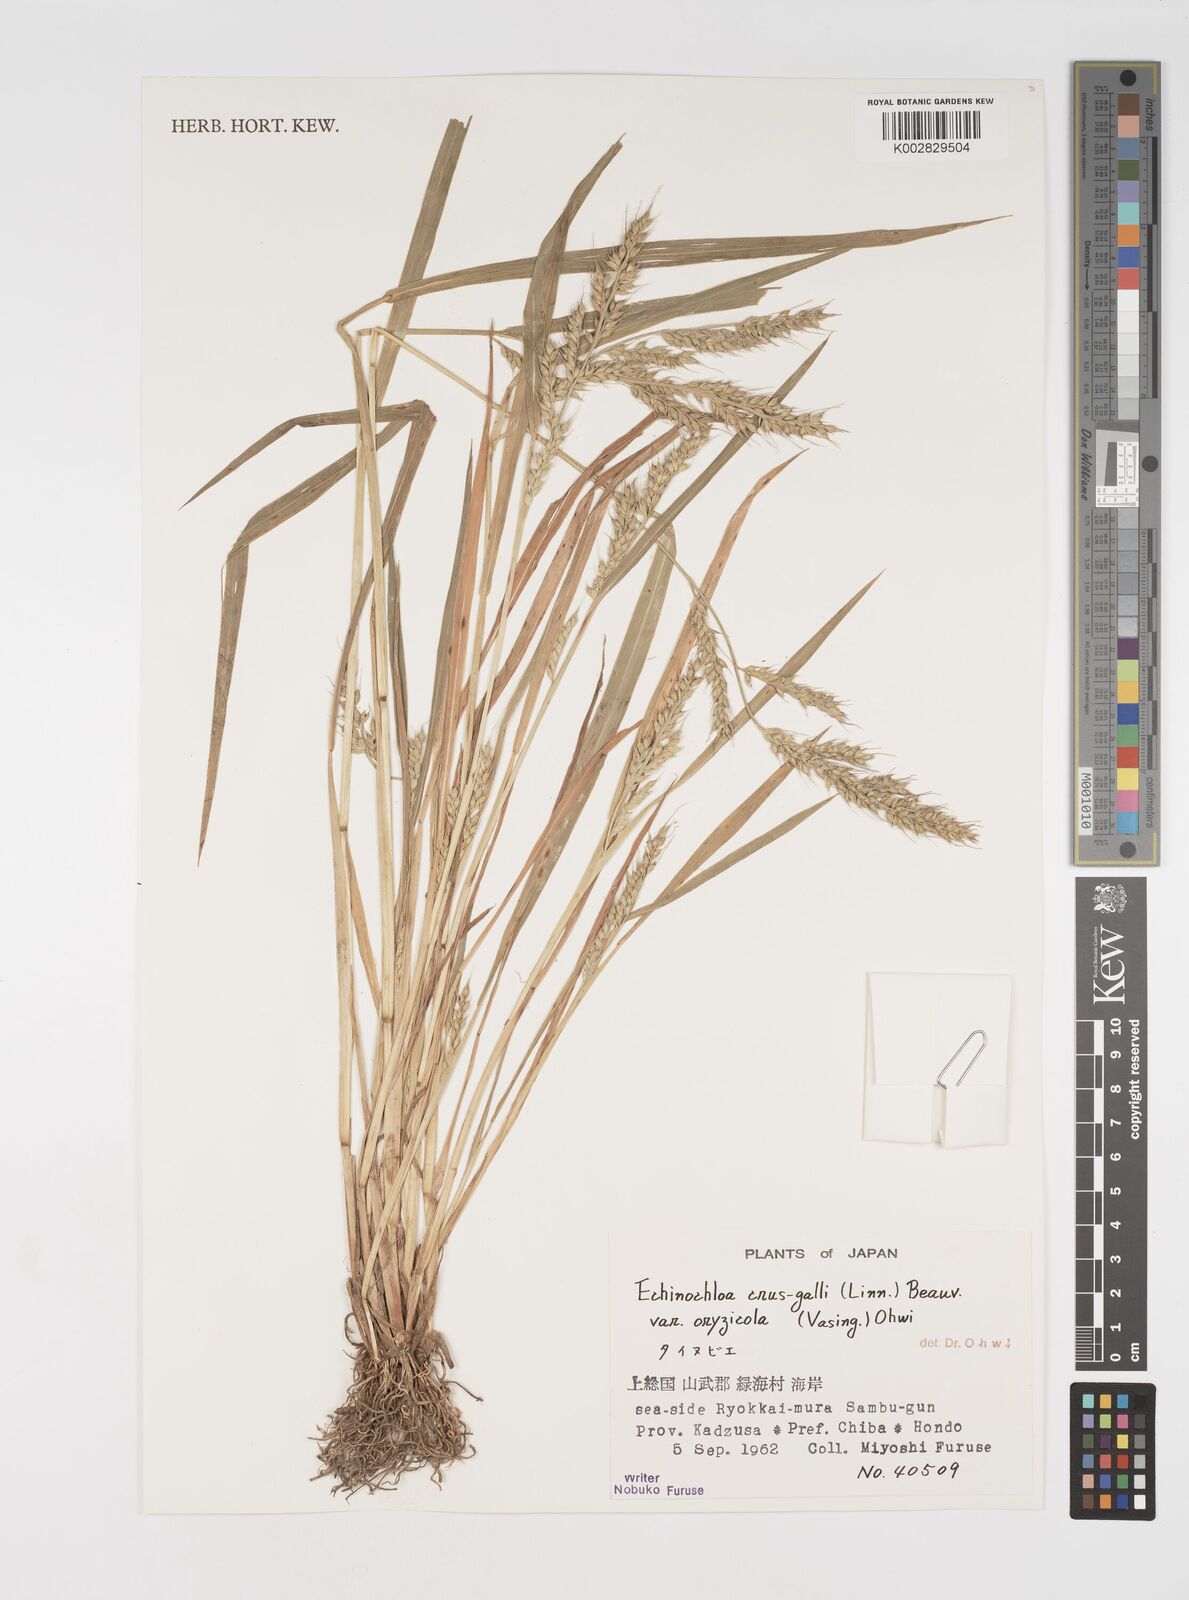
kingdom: Plantae
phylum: Tracheophyta
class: Liliopsida
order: Poales
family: Poaceae
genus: Echinochloa
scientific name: Echinochloa oryzoides
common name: Early water grass
